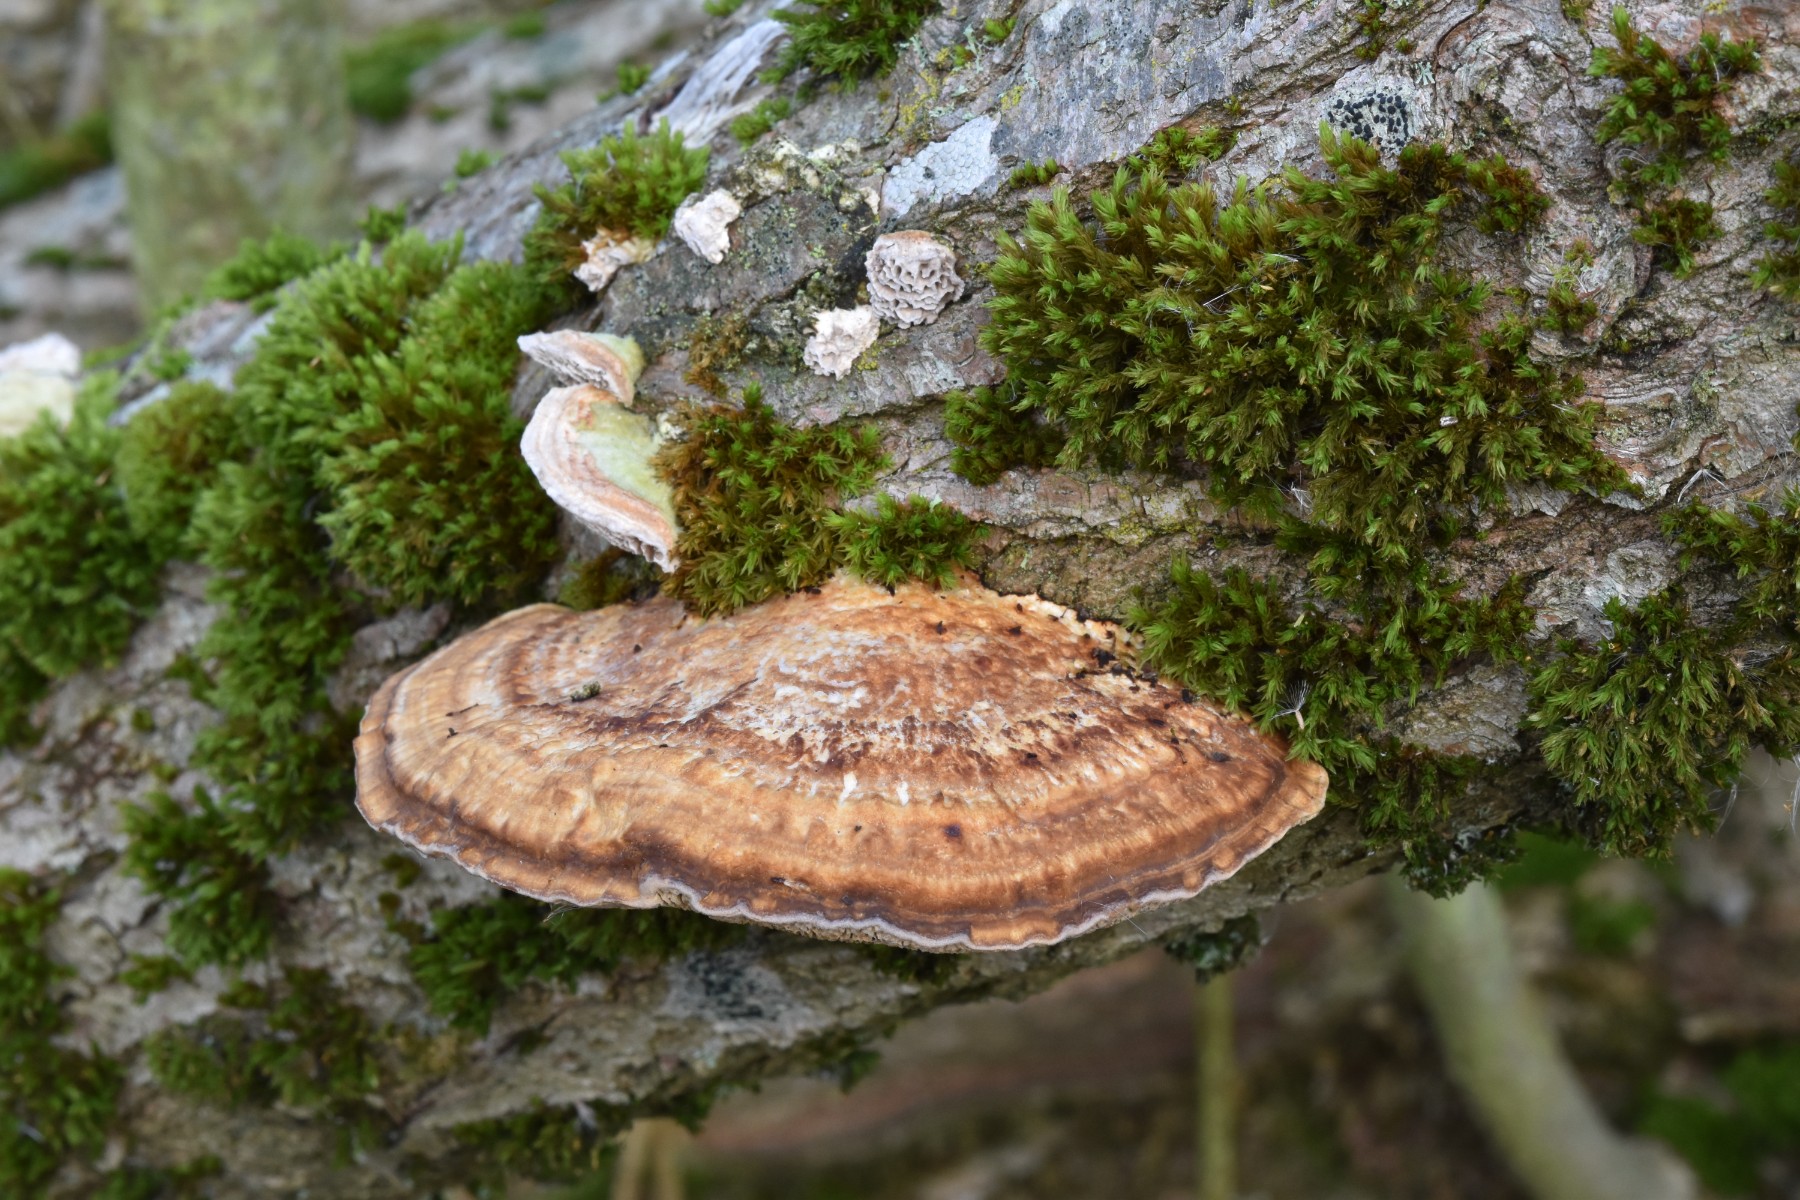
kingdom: Fungi
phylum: Basidiomycota
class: Agaricomycetes
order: Polyporales
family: Polyporaceae
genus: Daedaleopsis
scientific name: Daedaleopsis confragosa
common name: rødmende læderporesvamp
